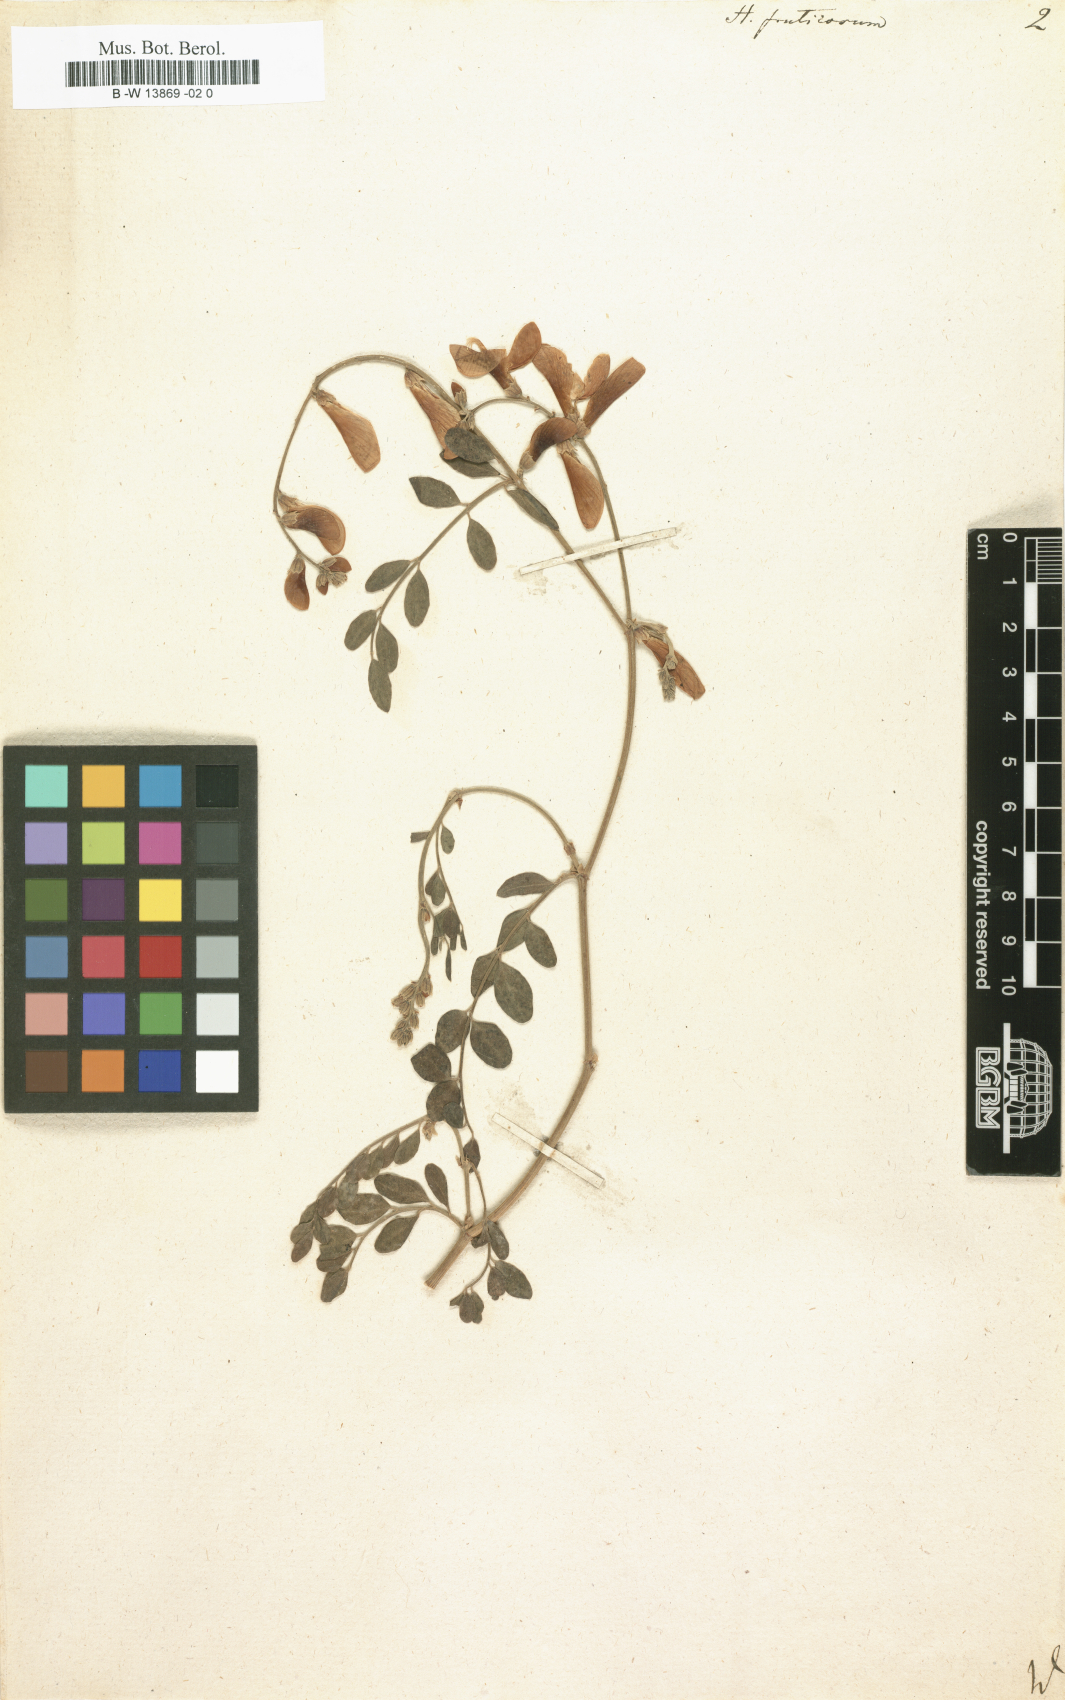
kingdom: Plantae
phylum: Tracheophyta
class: Magnoliopsida
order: Fabales
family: Fabaceae
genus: Corethrodendron
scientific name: Corethrodendron fruticosum
